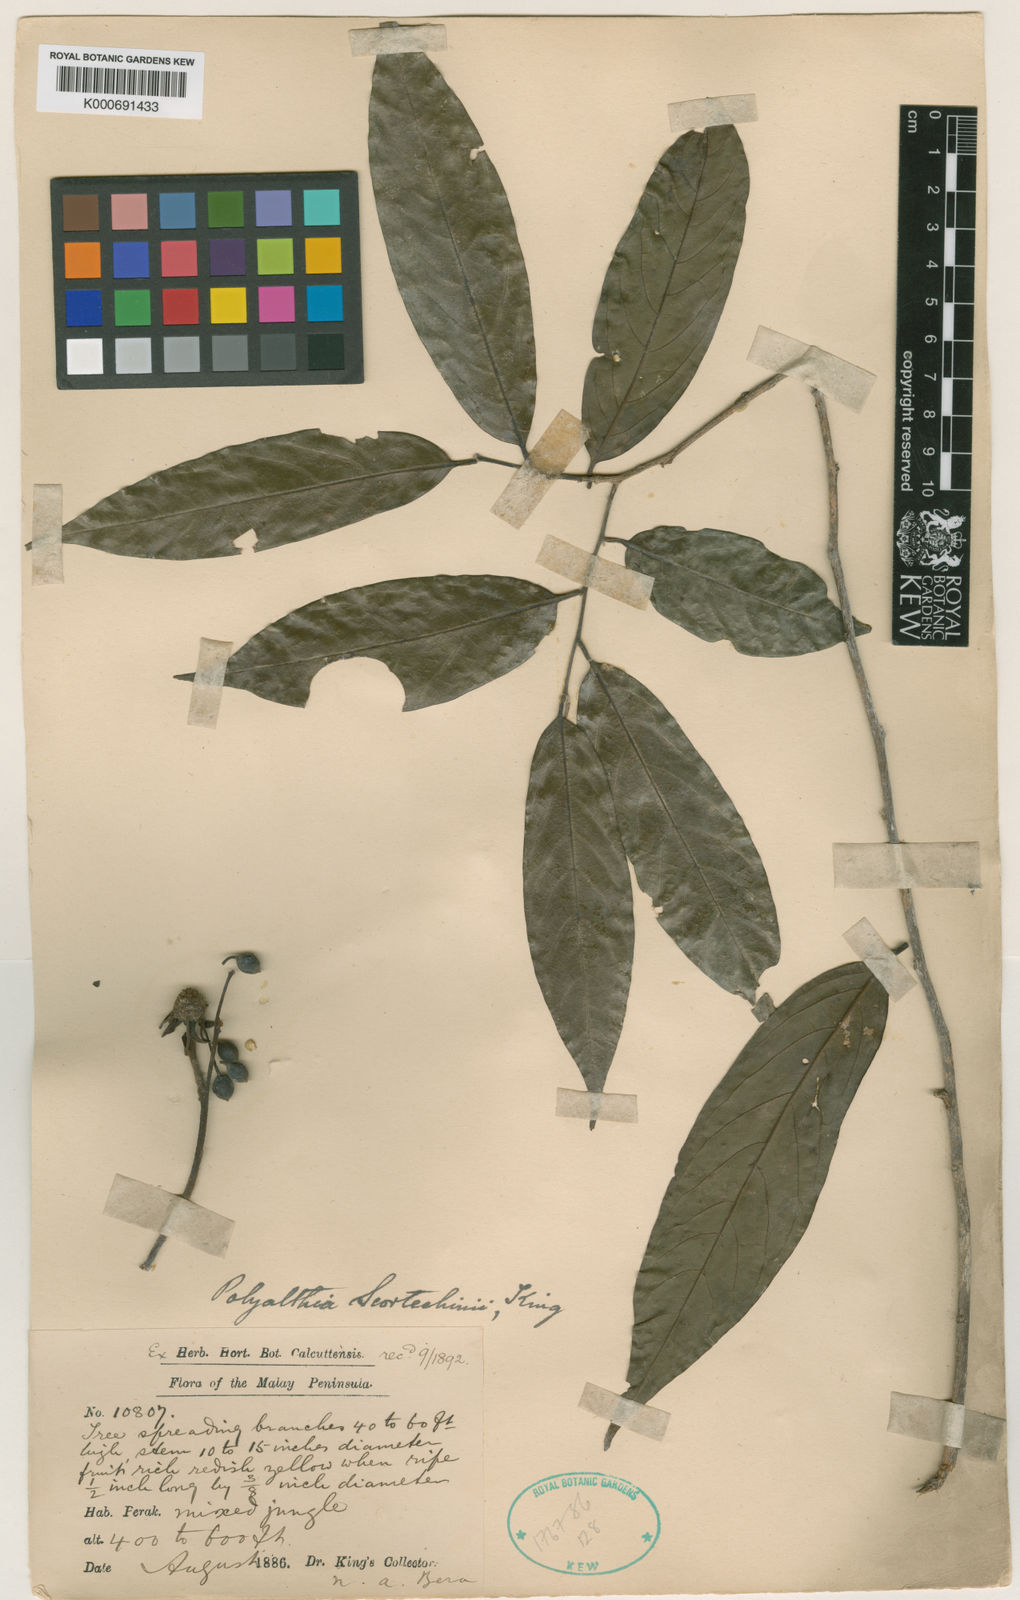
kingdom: Plantae
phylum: Tracheophyta
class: Magnoliopsida
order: Magnoliales
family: Annonaceae
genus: Hubera
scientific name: Hubera rumphii
